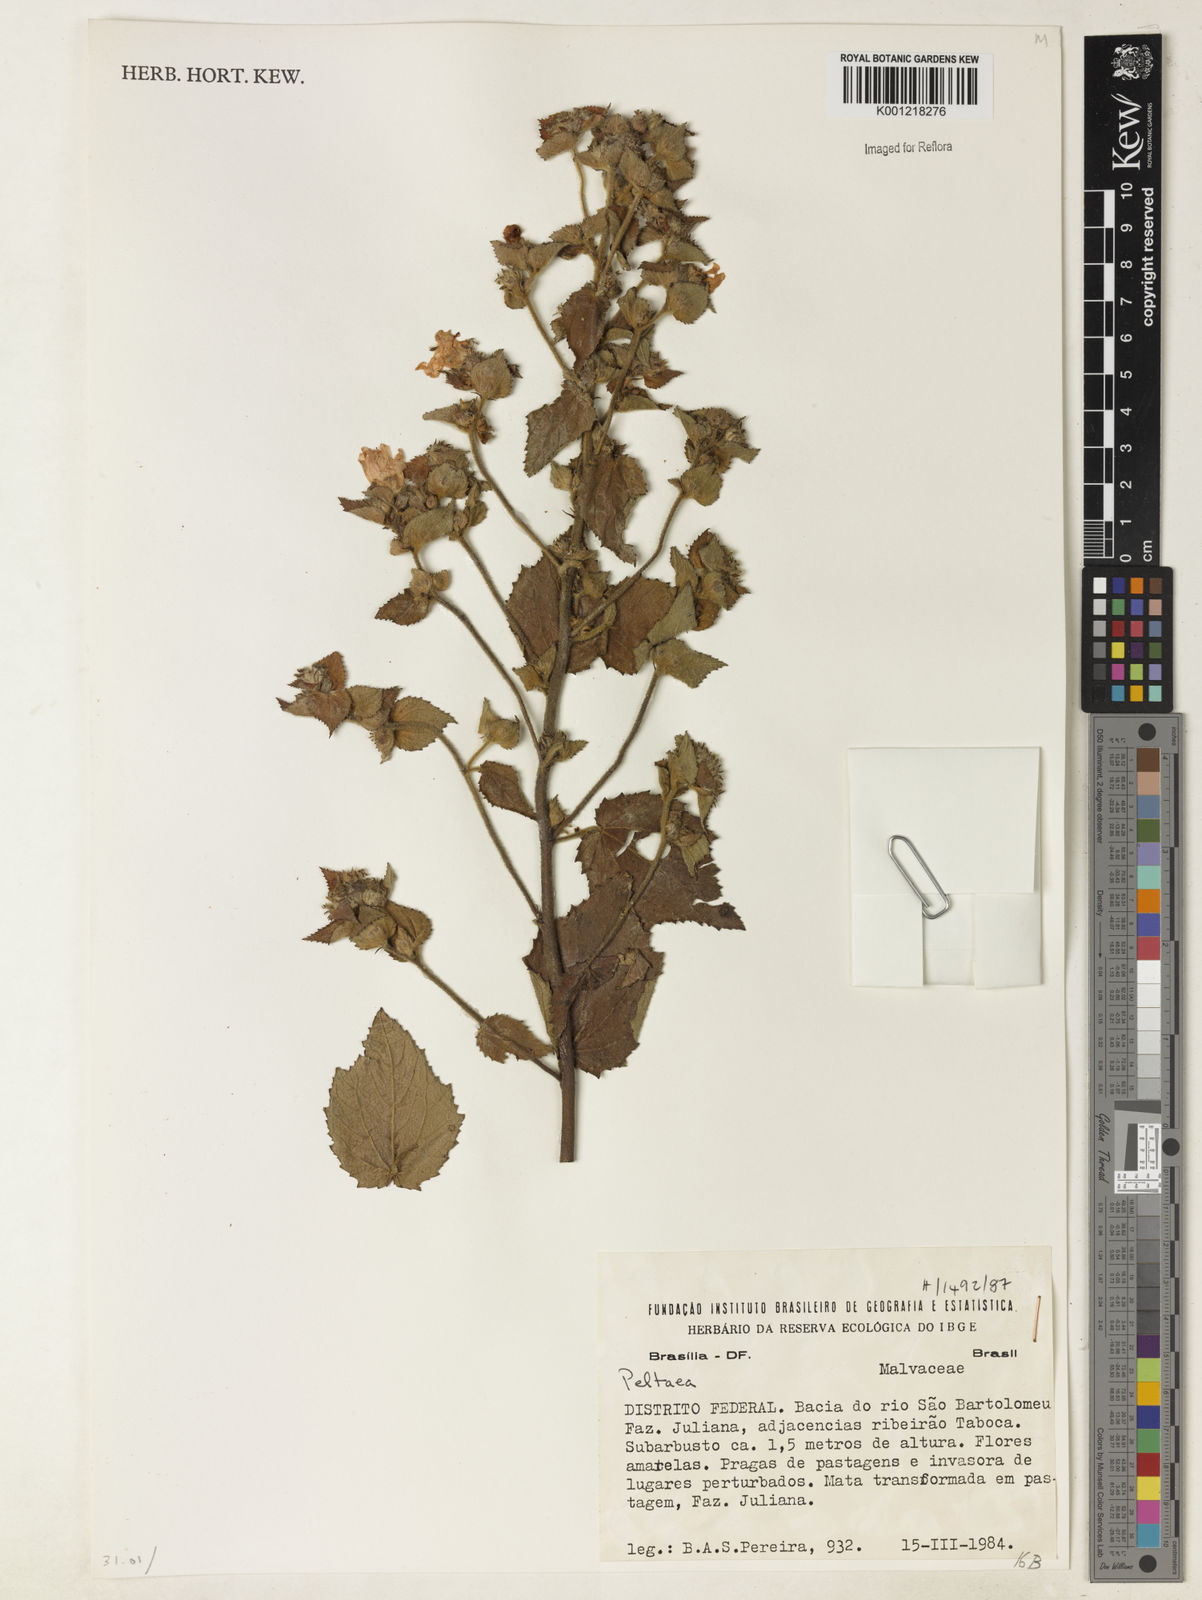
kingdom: Plantae
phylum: Tracheophyta
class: Magnoliopsida
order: Malvales
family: Malvaceae
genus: Peltaea
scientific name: Peltaea
